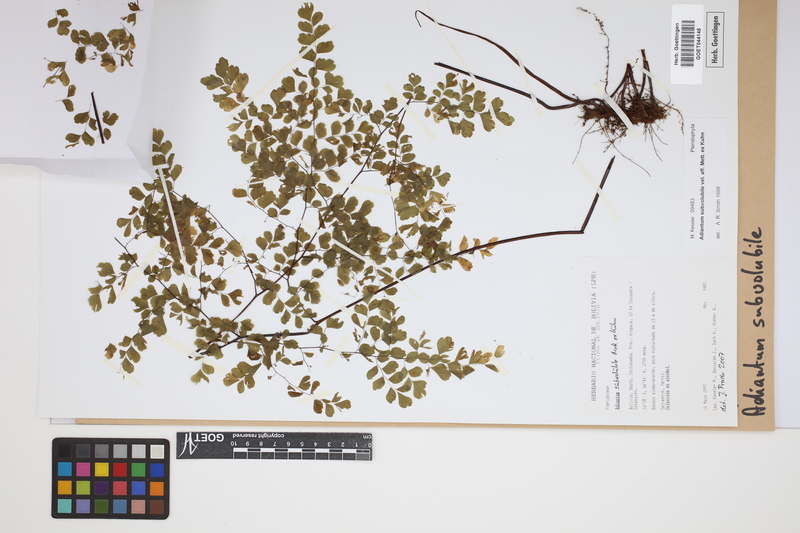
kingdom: Plantae
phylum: Tracheophyta
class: Polypodiopsida
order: Polypodiales
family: Pteridaceae
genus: Adiantum
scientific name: Adiantum subvolubile
